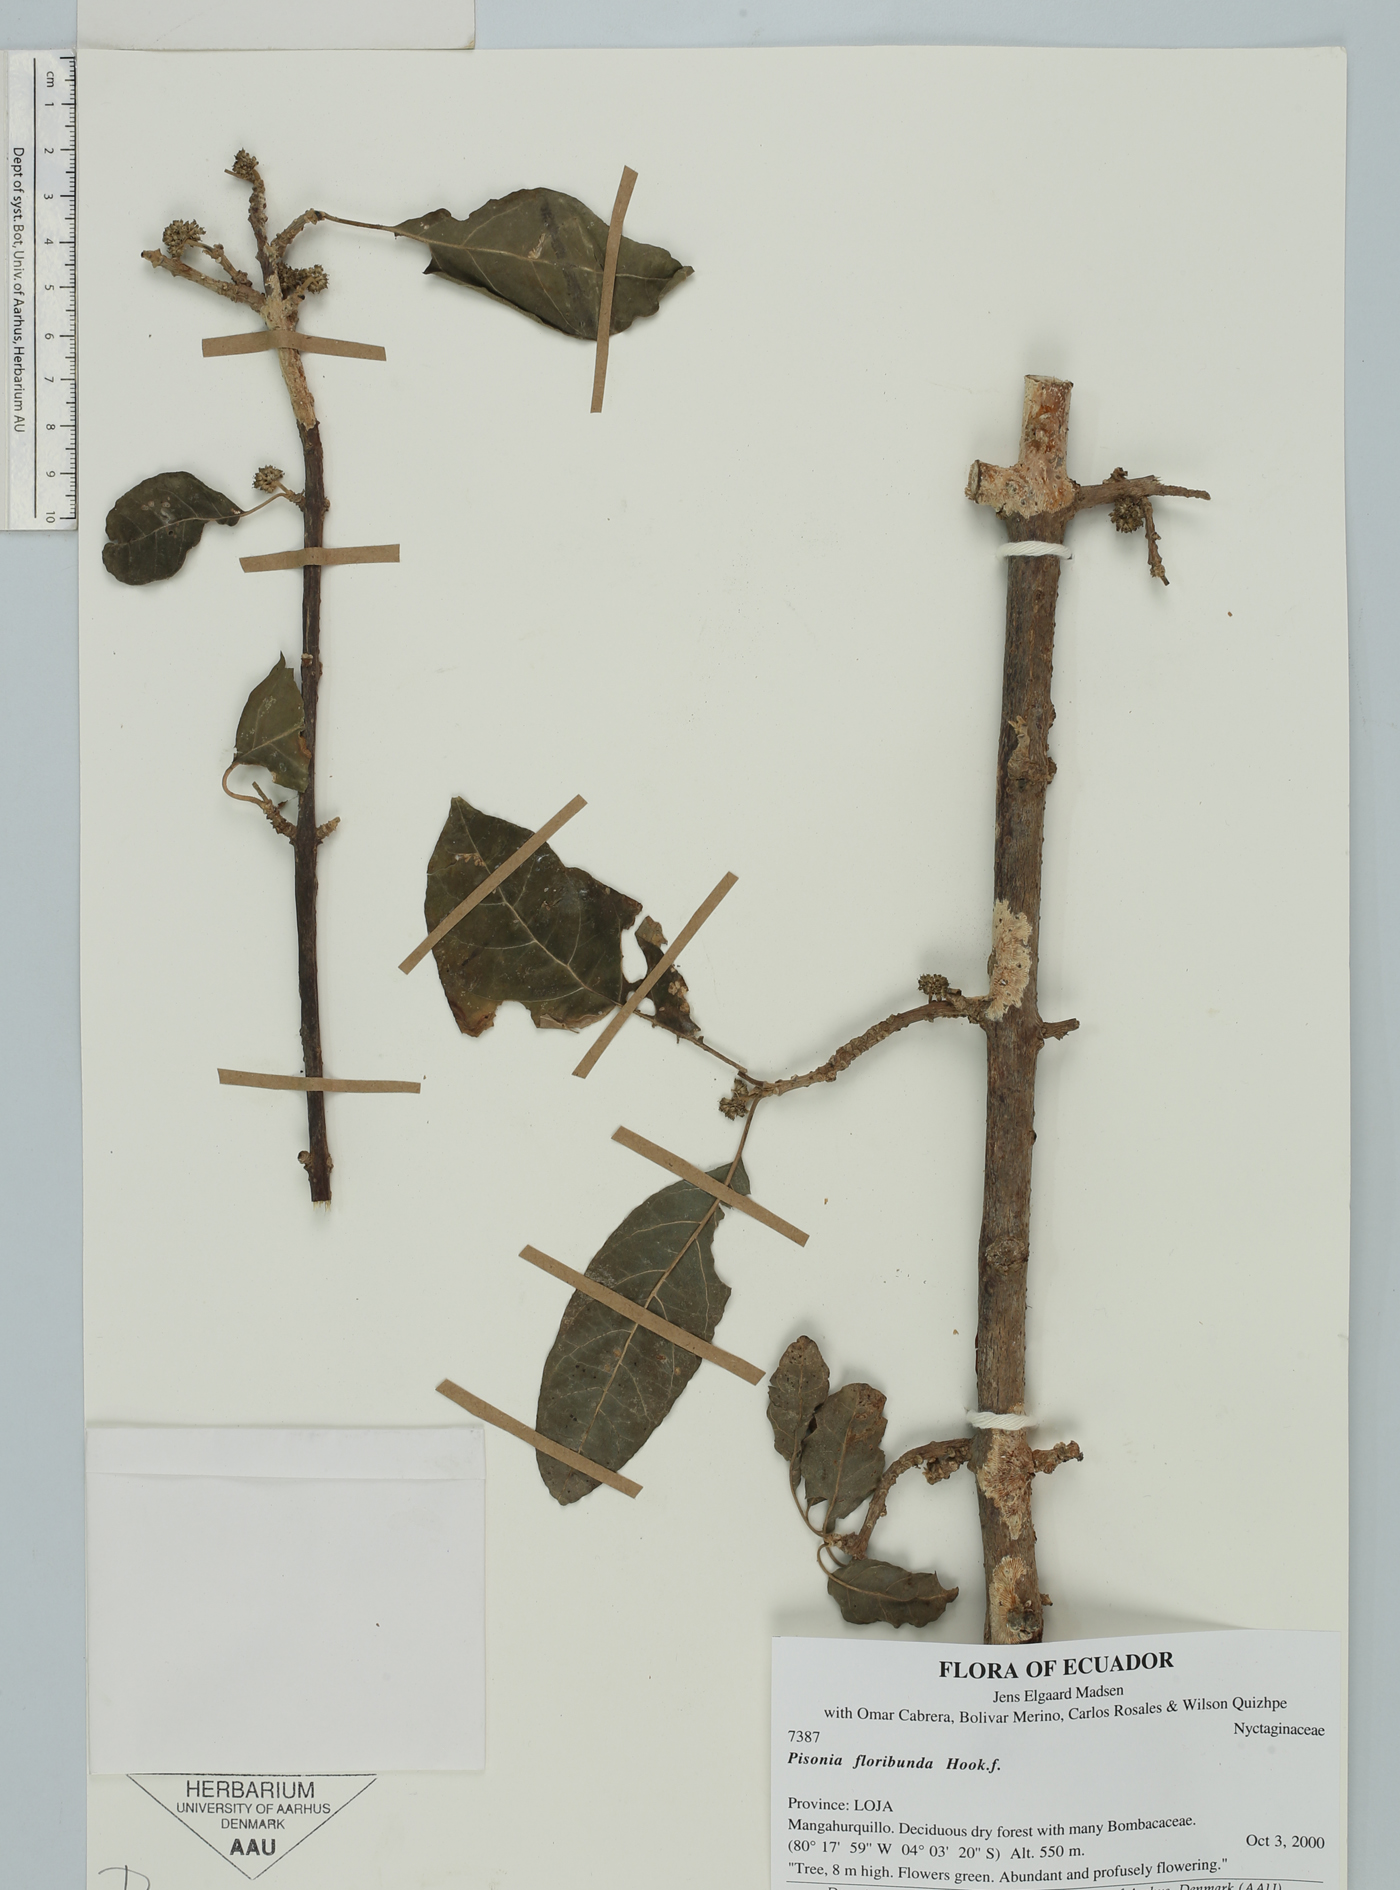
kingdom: Plantae
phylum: Tracheophyta
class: Magnoliopsida
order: Caryophyllales
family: Nyctaginaceae
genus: Guapira
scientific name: Guapira floribunda
